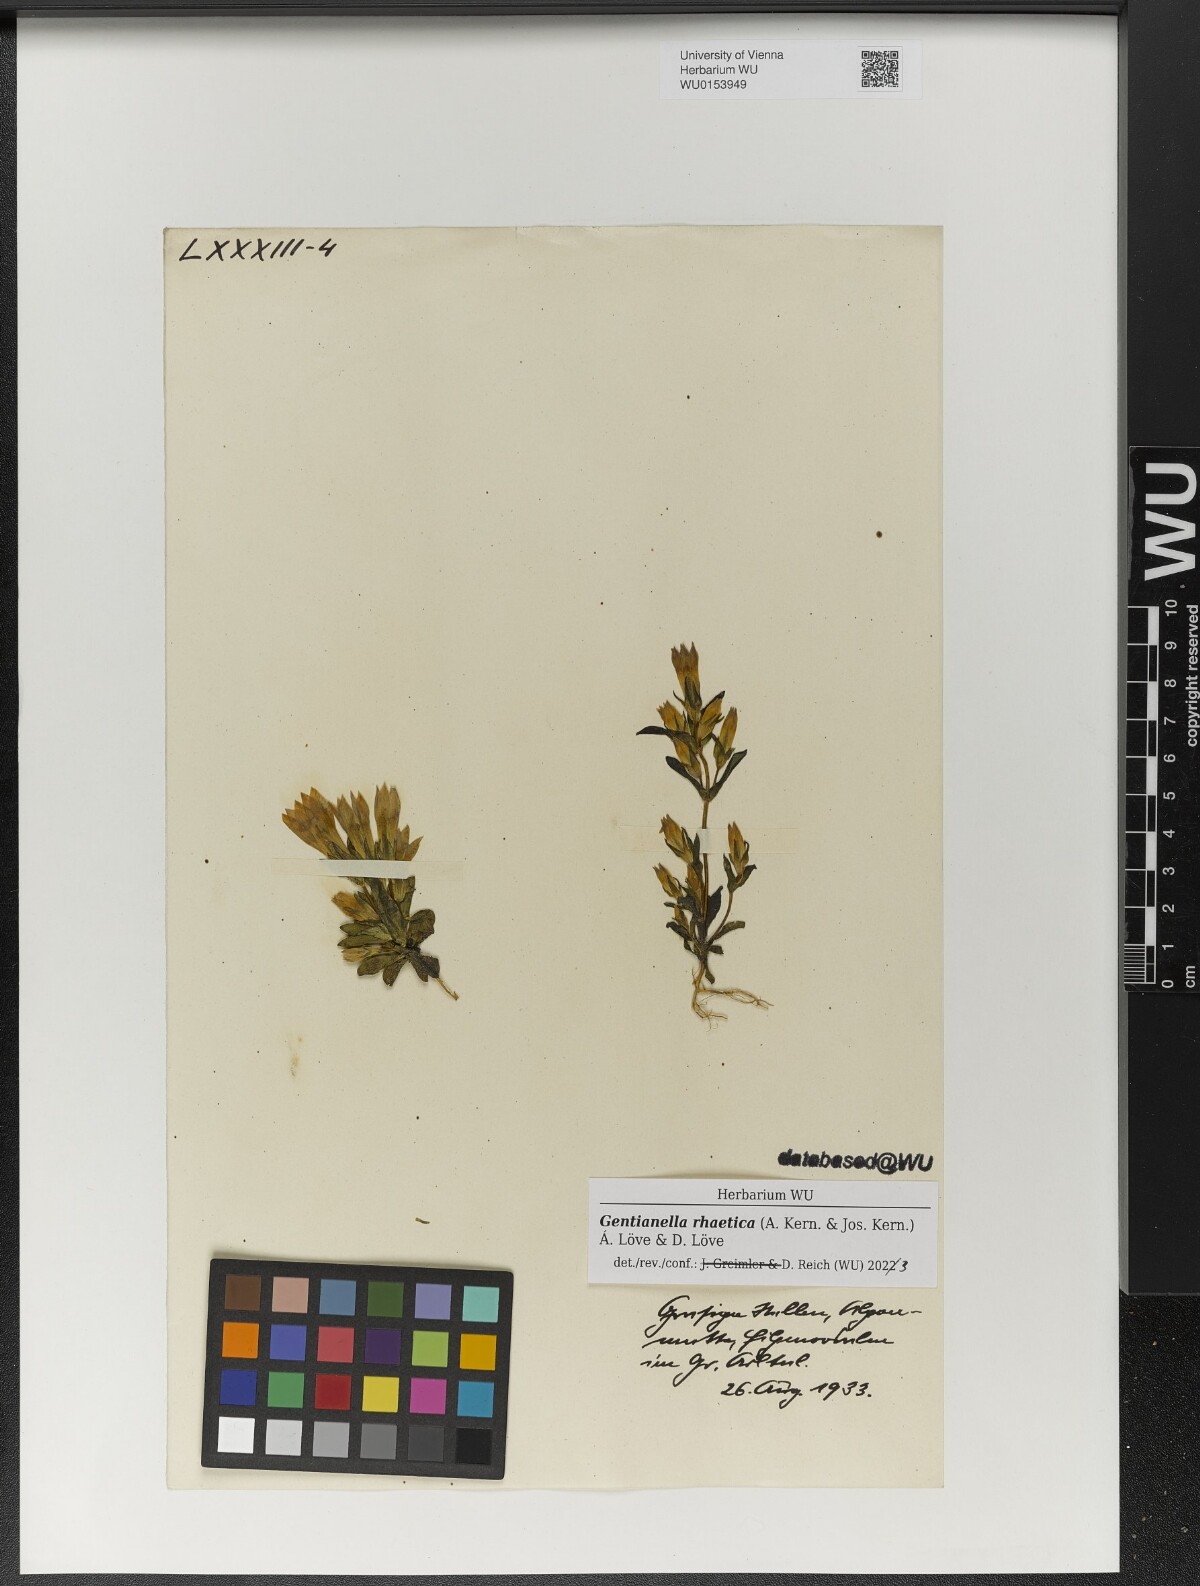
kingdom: Plantae
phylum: Tracheophyta
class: Magnoliopsida
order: Gentianales
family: Gentianaceae
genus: Gentianella
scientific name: Gentianella rhaetica
